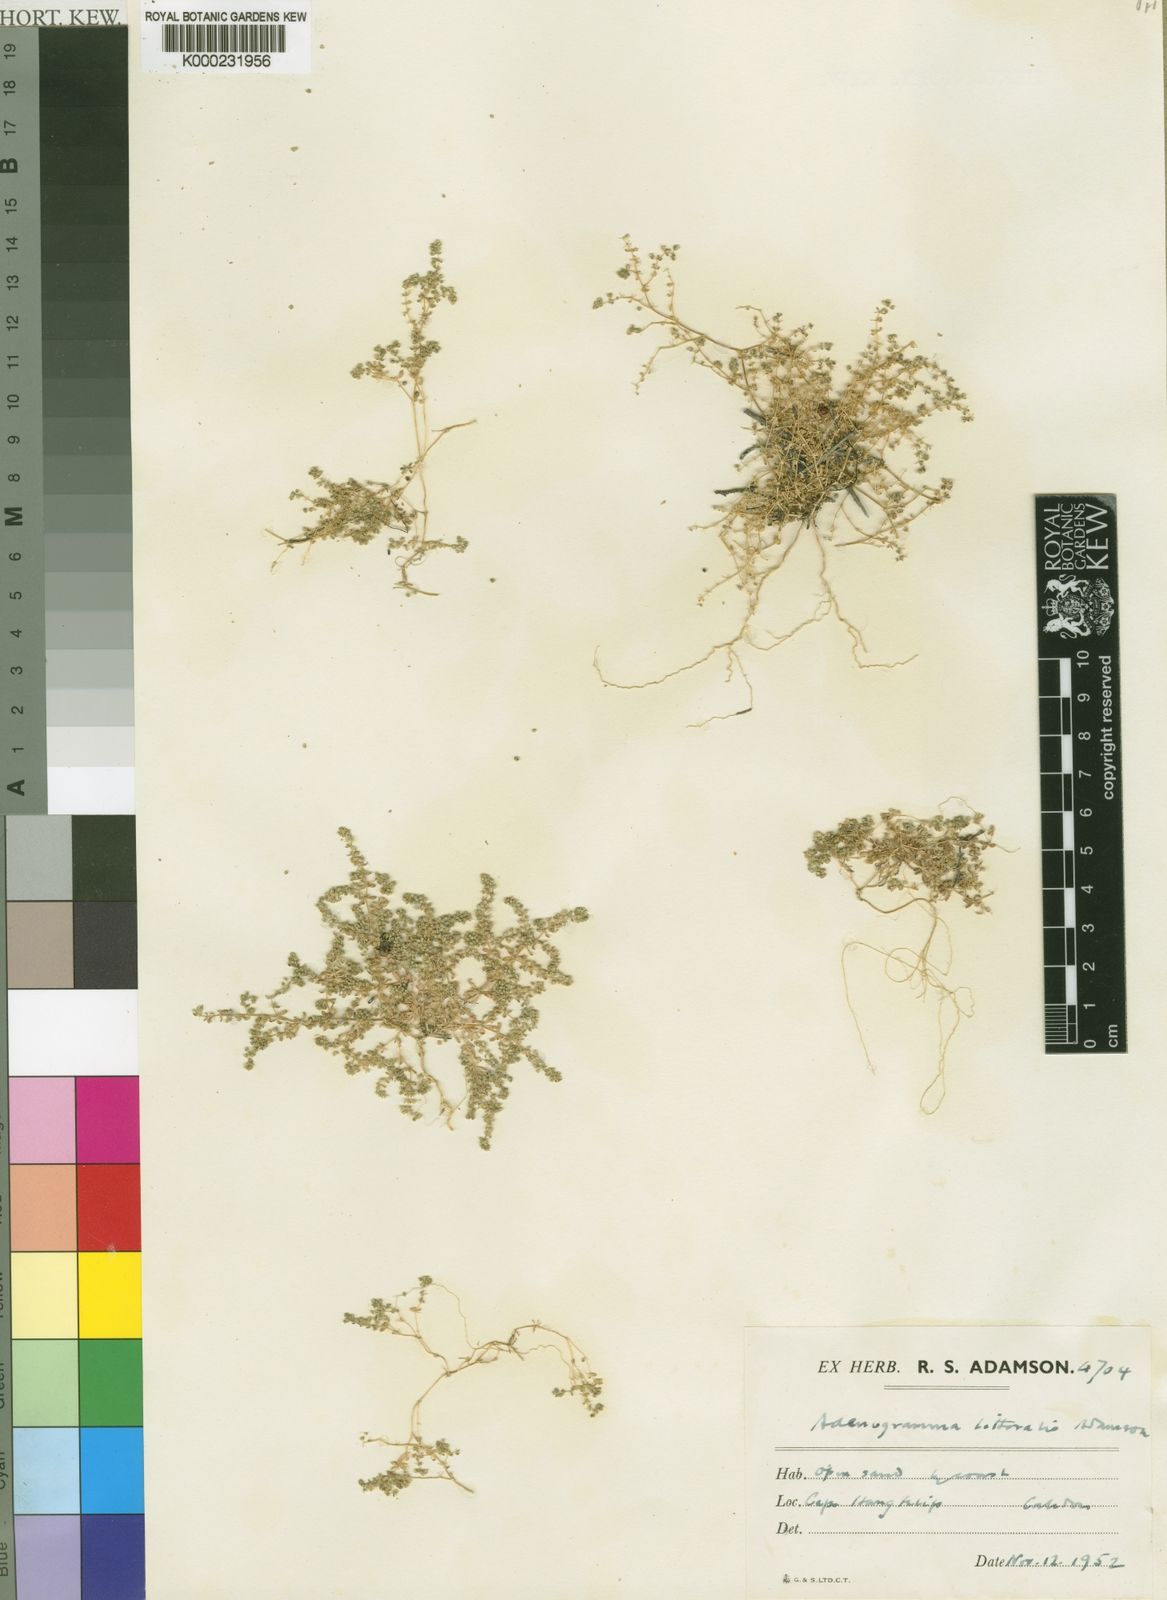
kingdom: Plantae
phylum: Tracheophyta
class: Magnoliopsida
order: Caryophyllales
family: Molluginaceae
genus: Adenogramma
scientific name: Adenogramma littoralis
